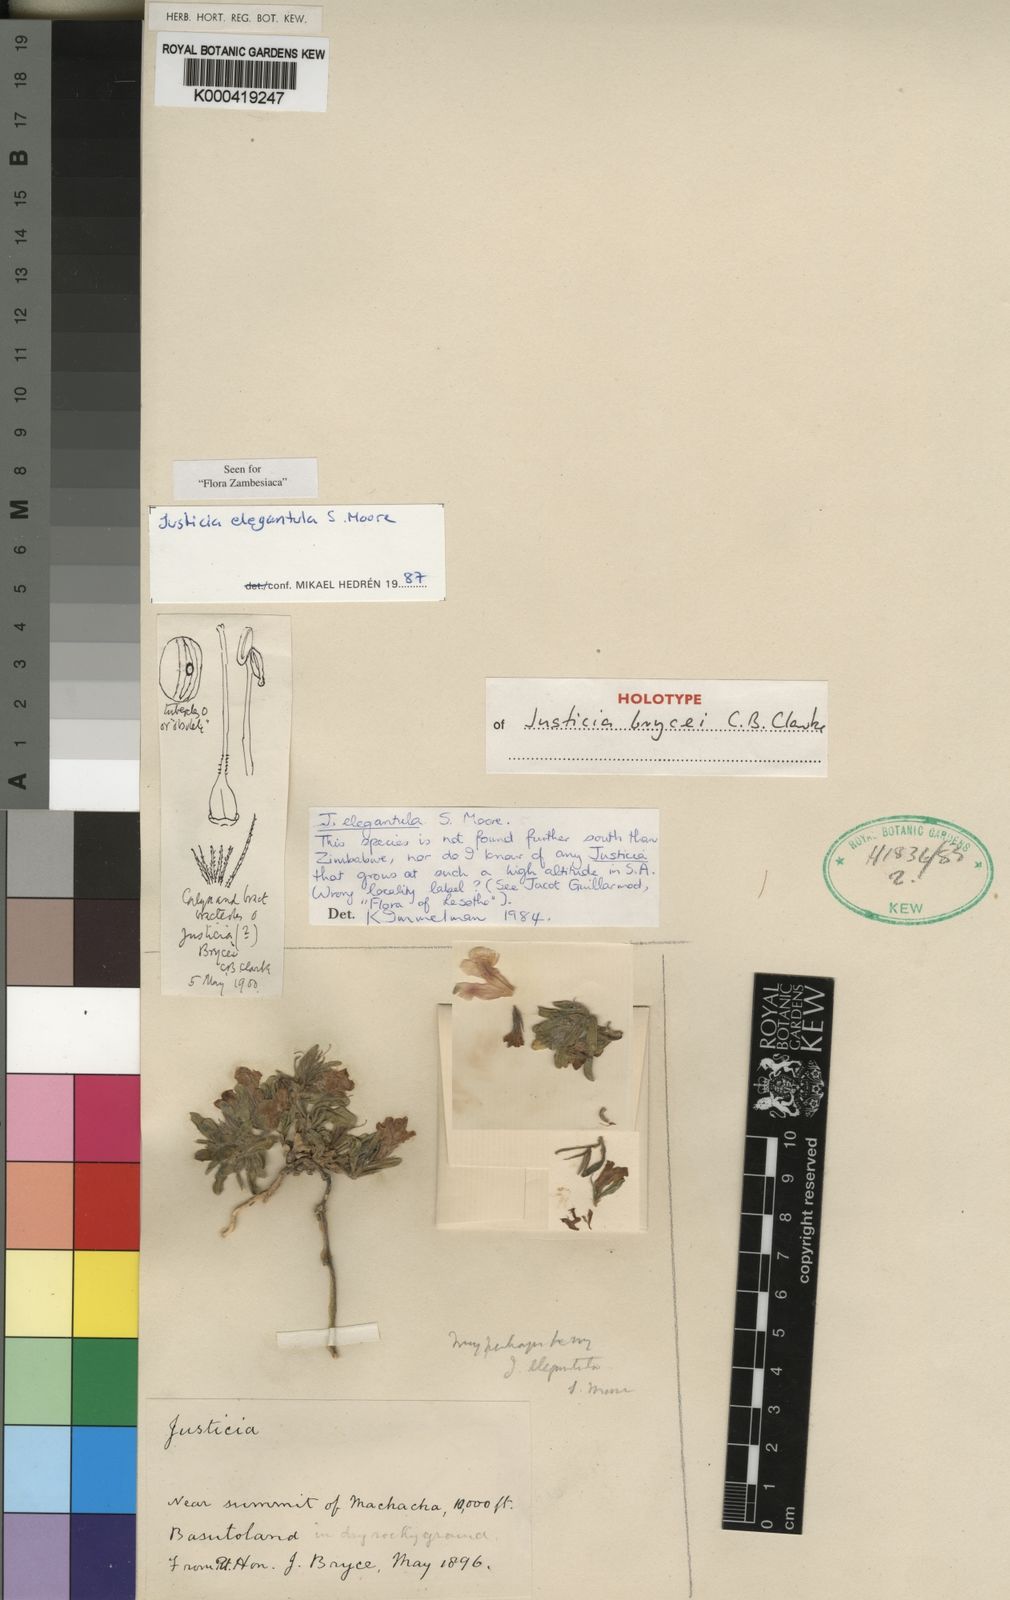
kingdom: Plantae
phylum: Tracheophyta
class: Magnoliopsida
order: Lamiales
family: Acanthaceae
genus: Justicia
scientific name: Justicia
